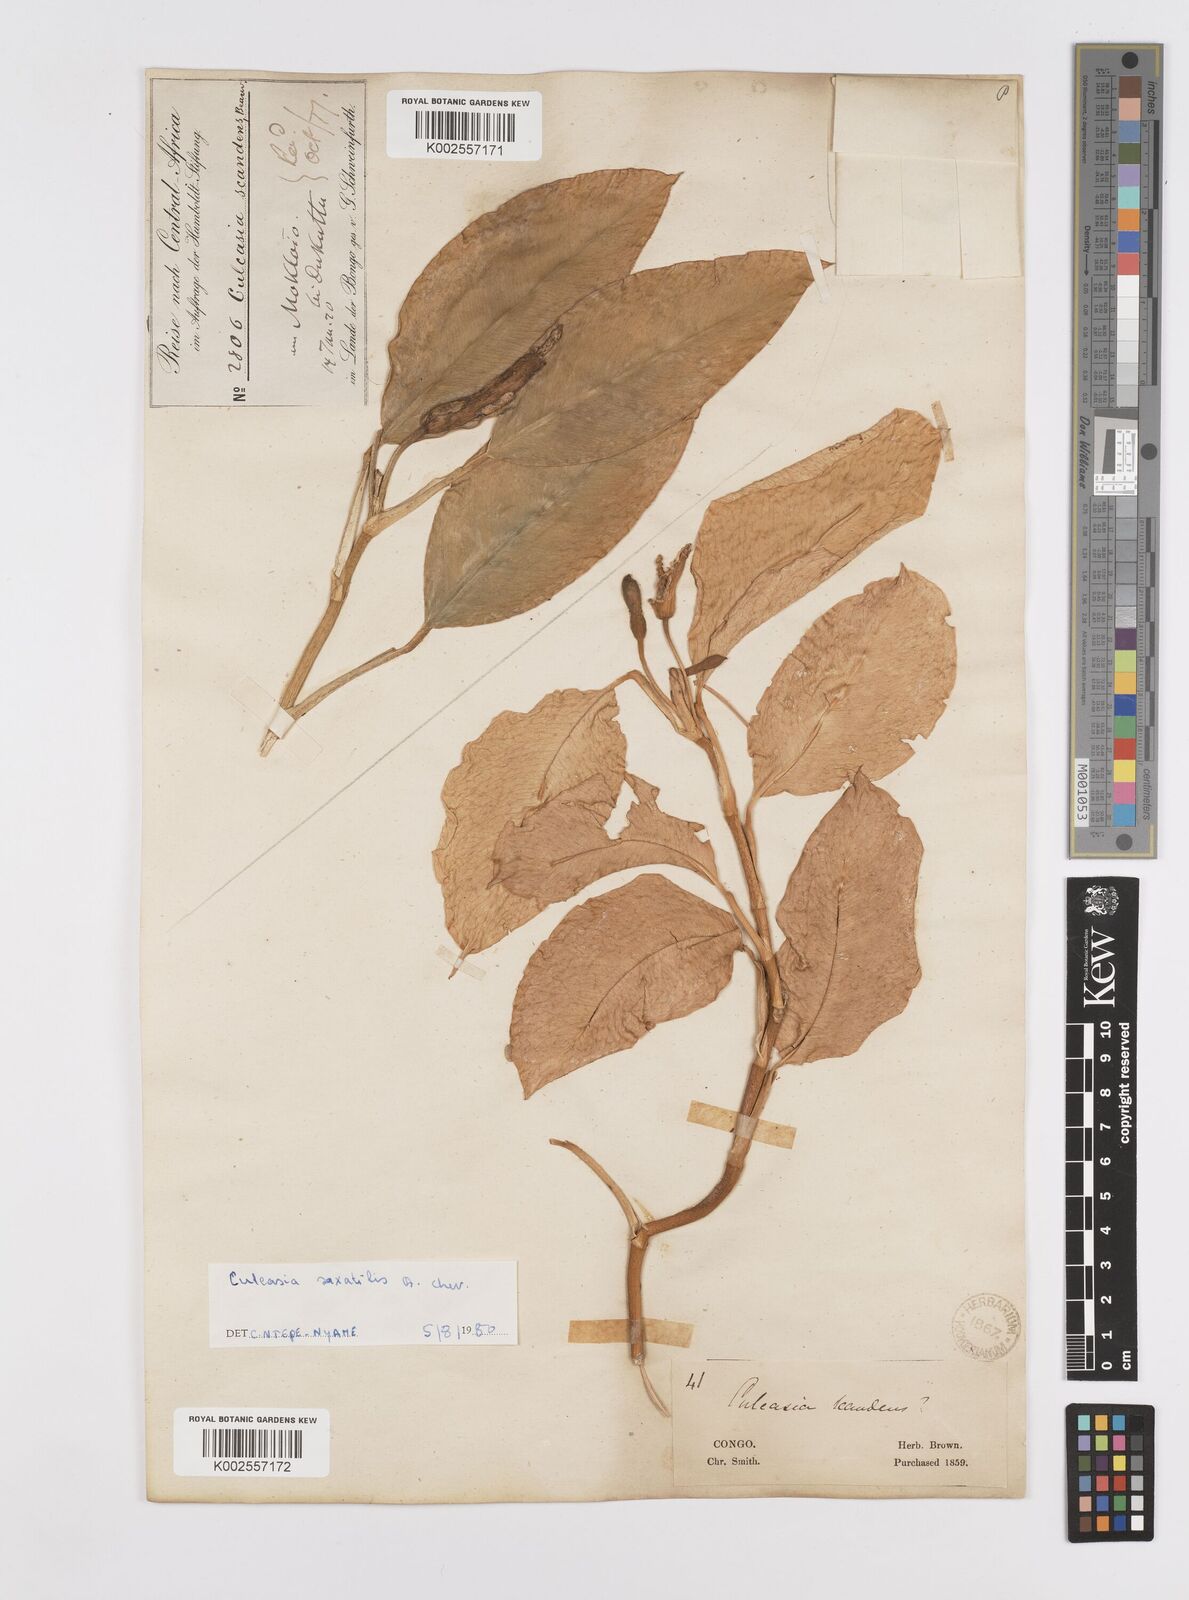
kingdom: Plantae
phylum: Tracheophyta
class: Liliopsida
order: Alismatales
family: Araceae
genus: Culcasia
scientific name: Culcasia scandens
